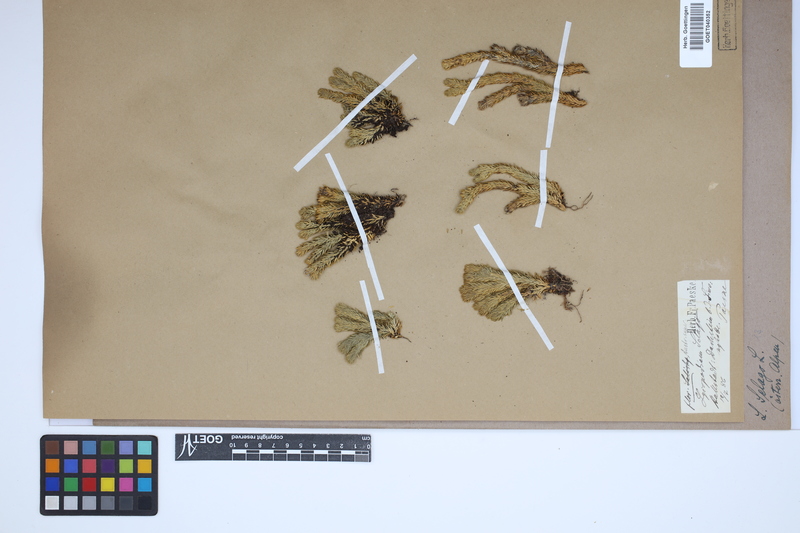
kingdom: Plantae
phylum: Tracheophyta
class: Lycopodiopsida
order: Lycopodiales
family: Lycopodiaceae
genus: Huperzia
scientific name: Huperzia selago
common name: Northern firmoss
